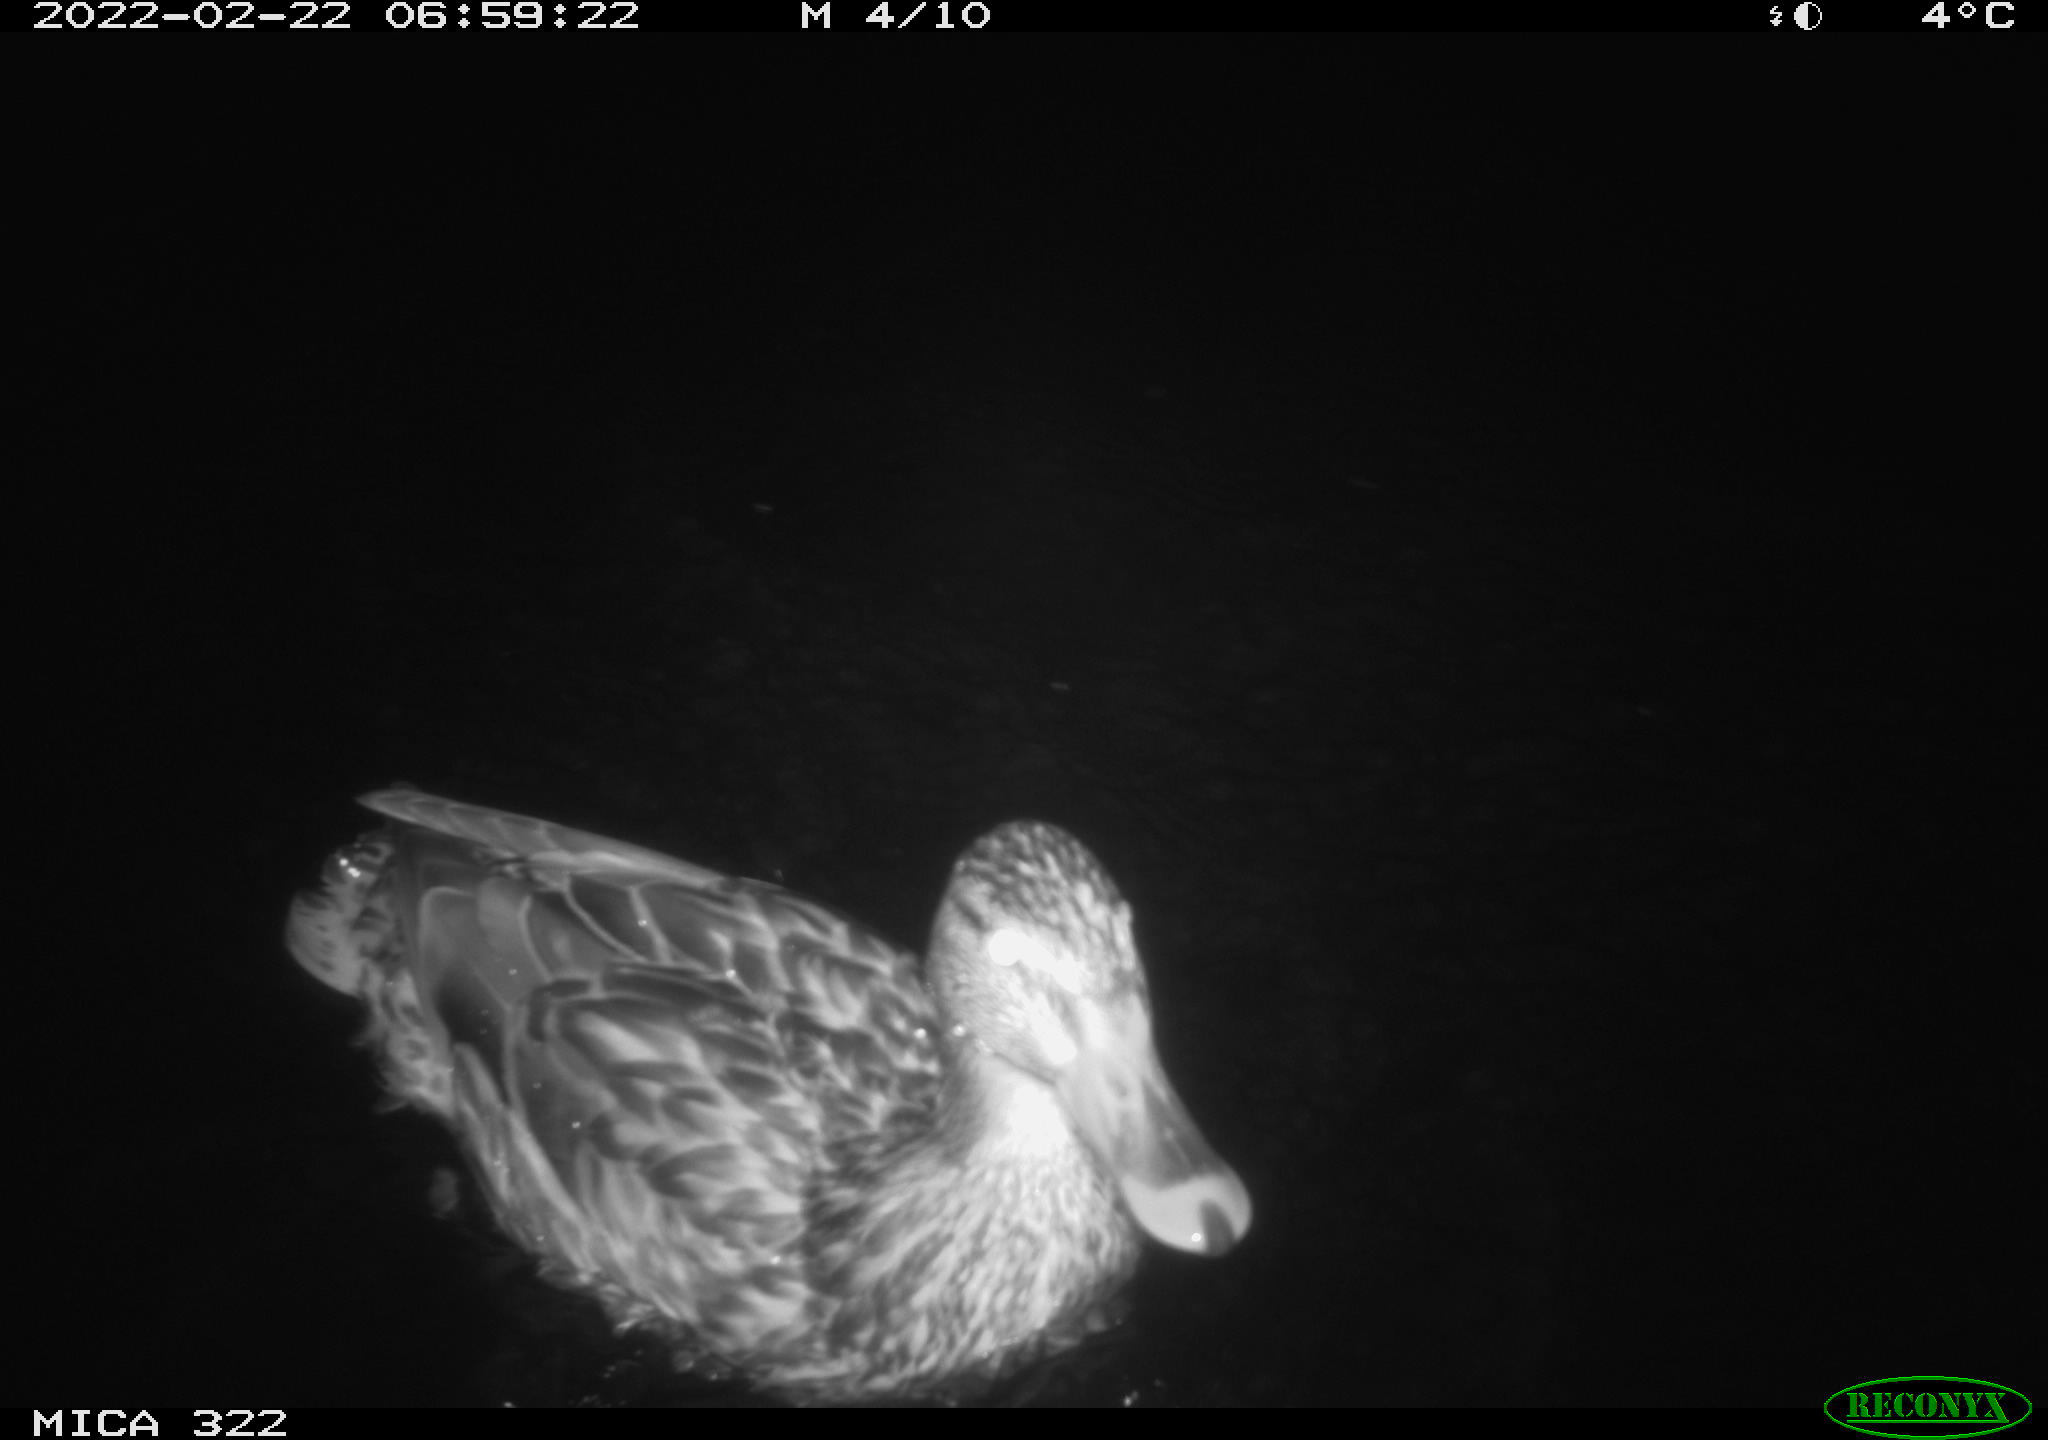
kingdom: Animalia
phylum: Chordata
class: Aves
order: Anseriformes
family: Anatidae
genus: Anas
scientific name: Anas platyrhynchos
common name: Mallard
